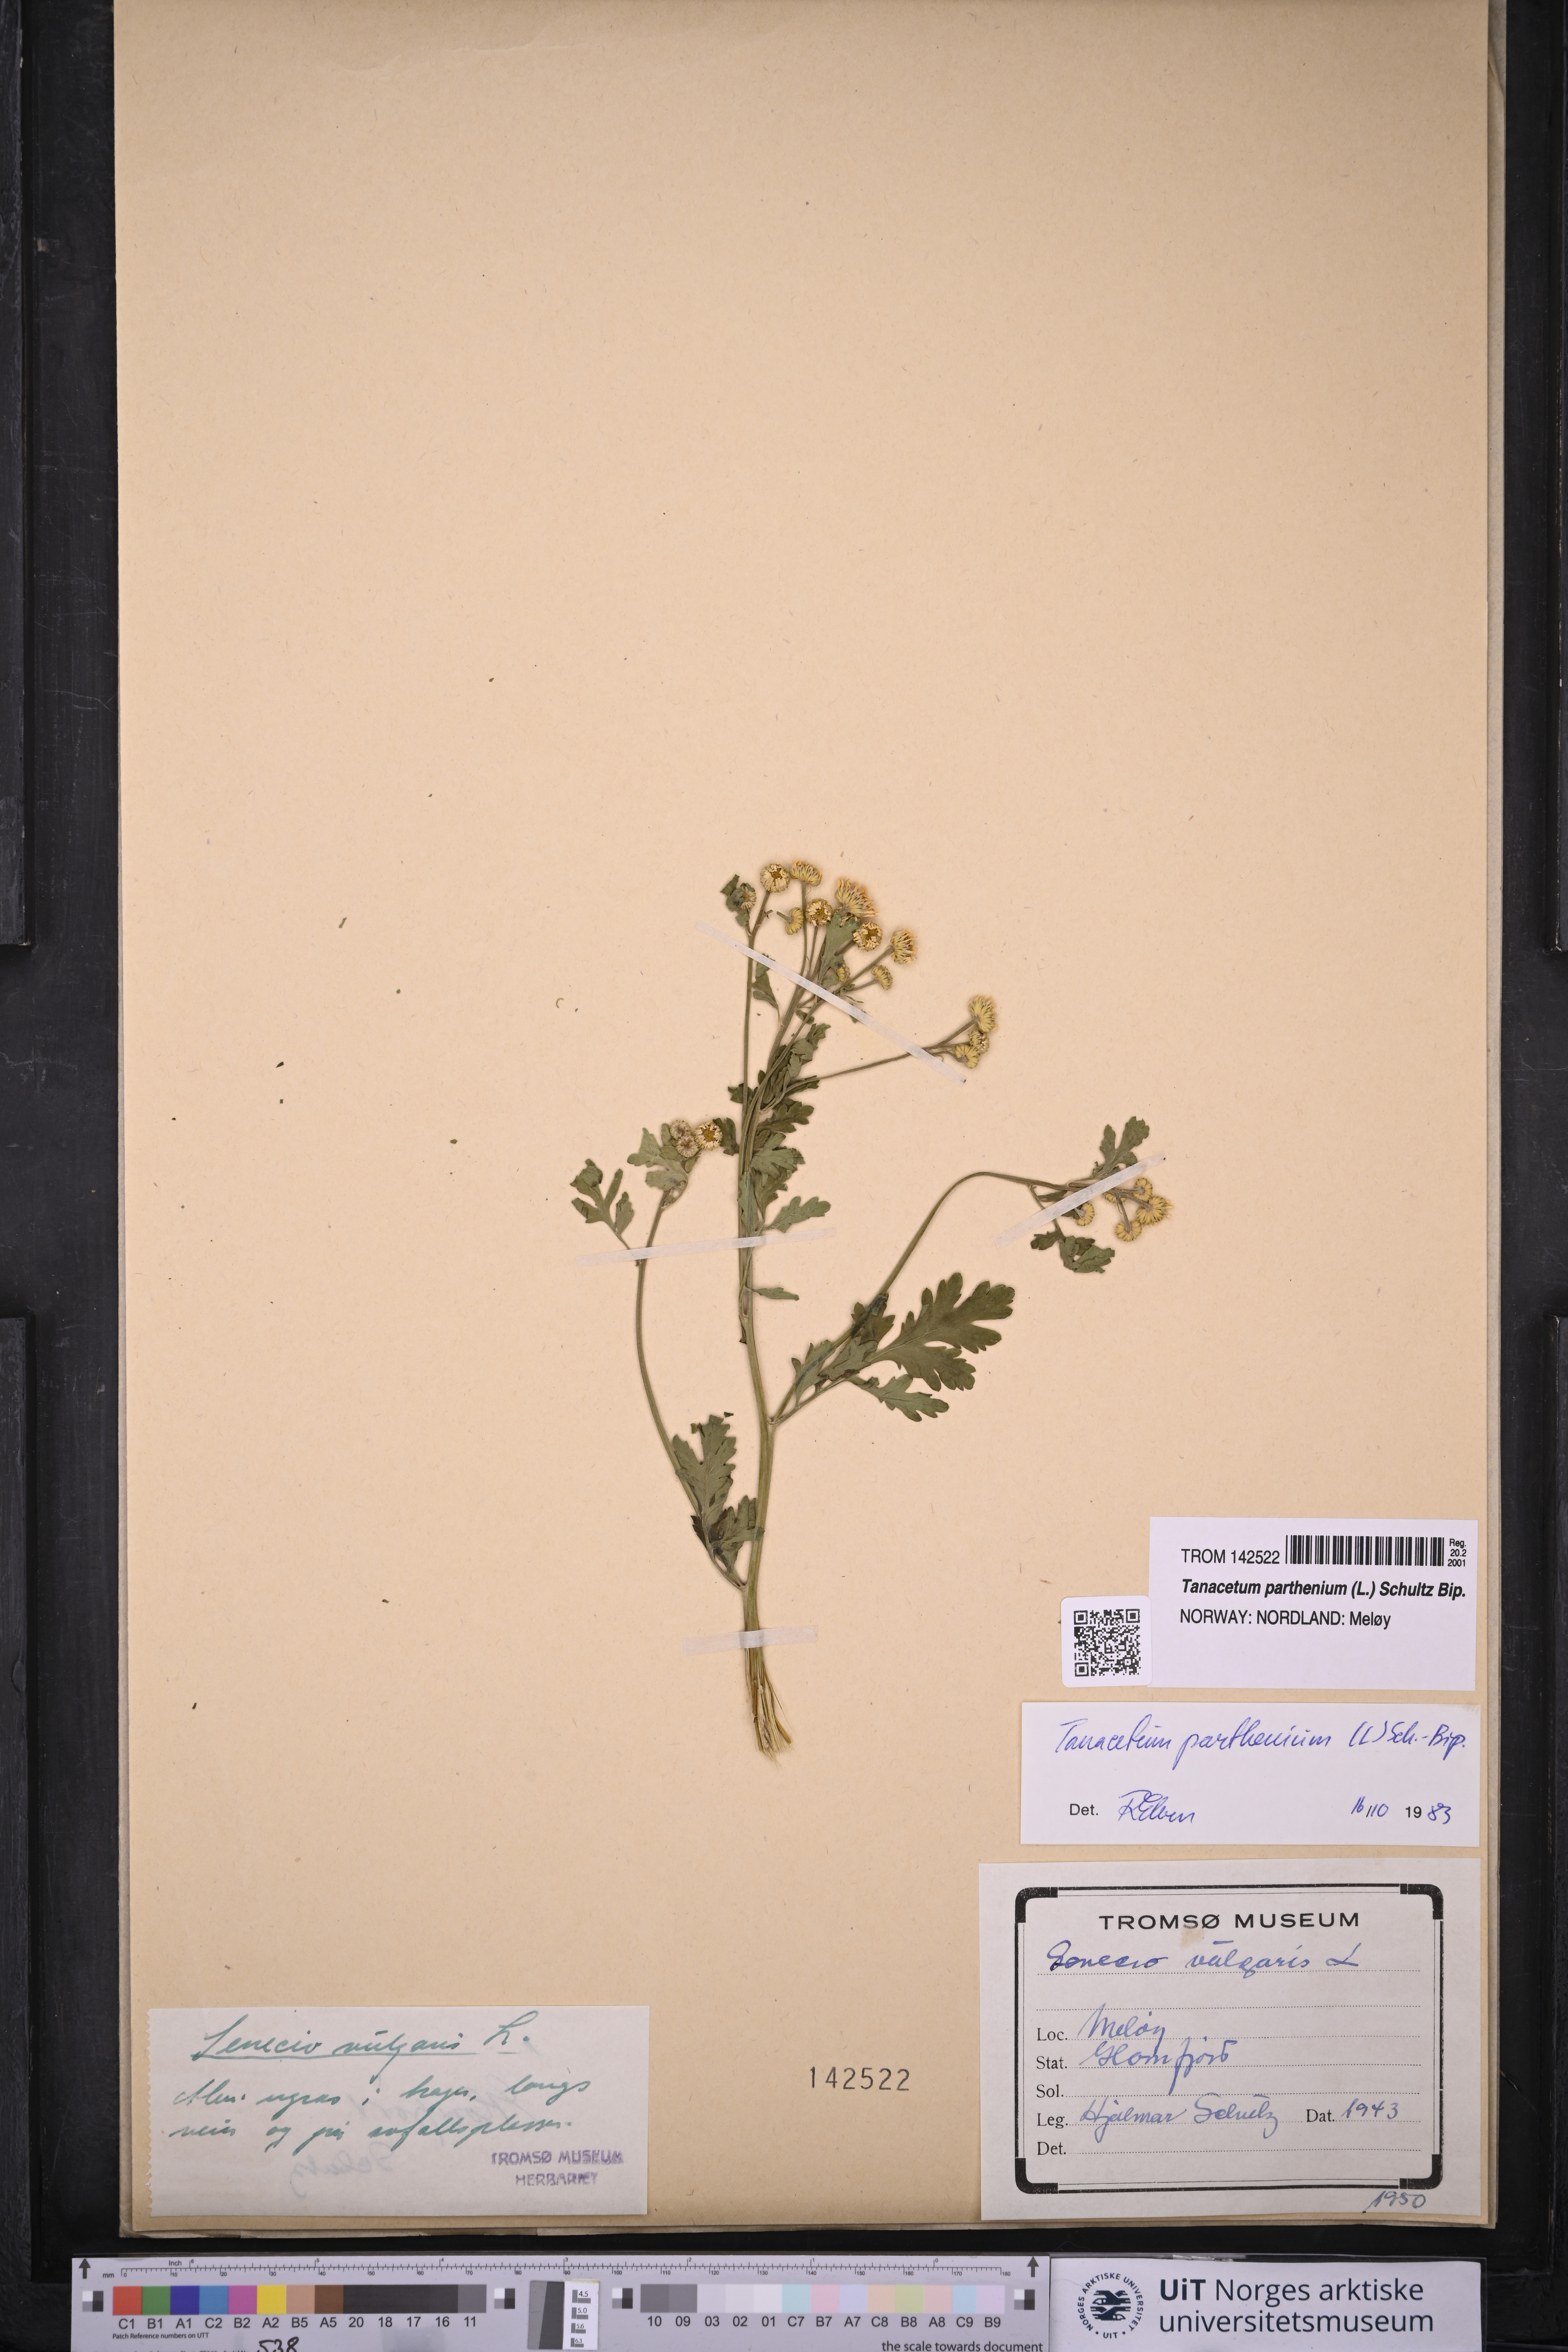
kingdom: Plantae
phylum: Tracheophyta
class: Magnoliopsida
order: Asterales
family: Asteraceae
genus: Tanacetum
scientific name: Tanacetum parthenium
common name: Feverfew
